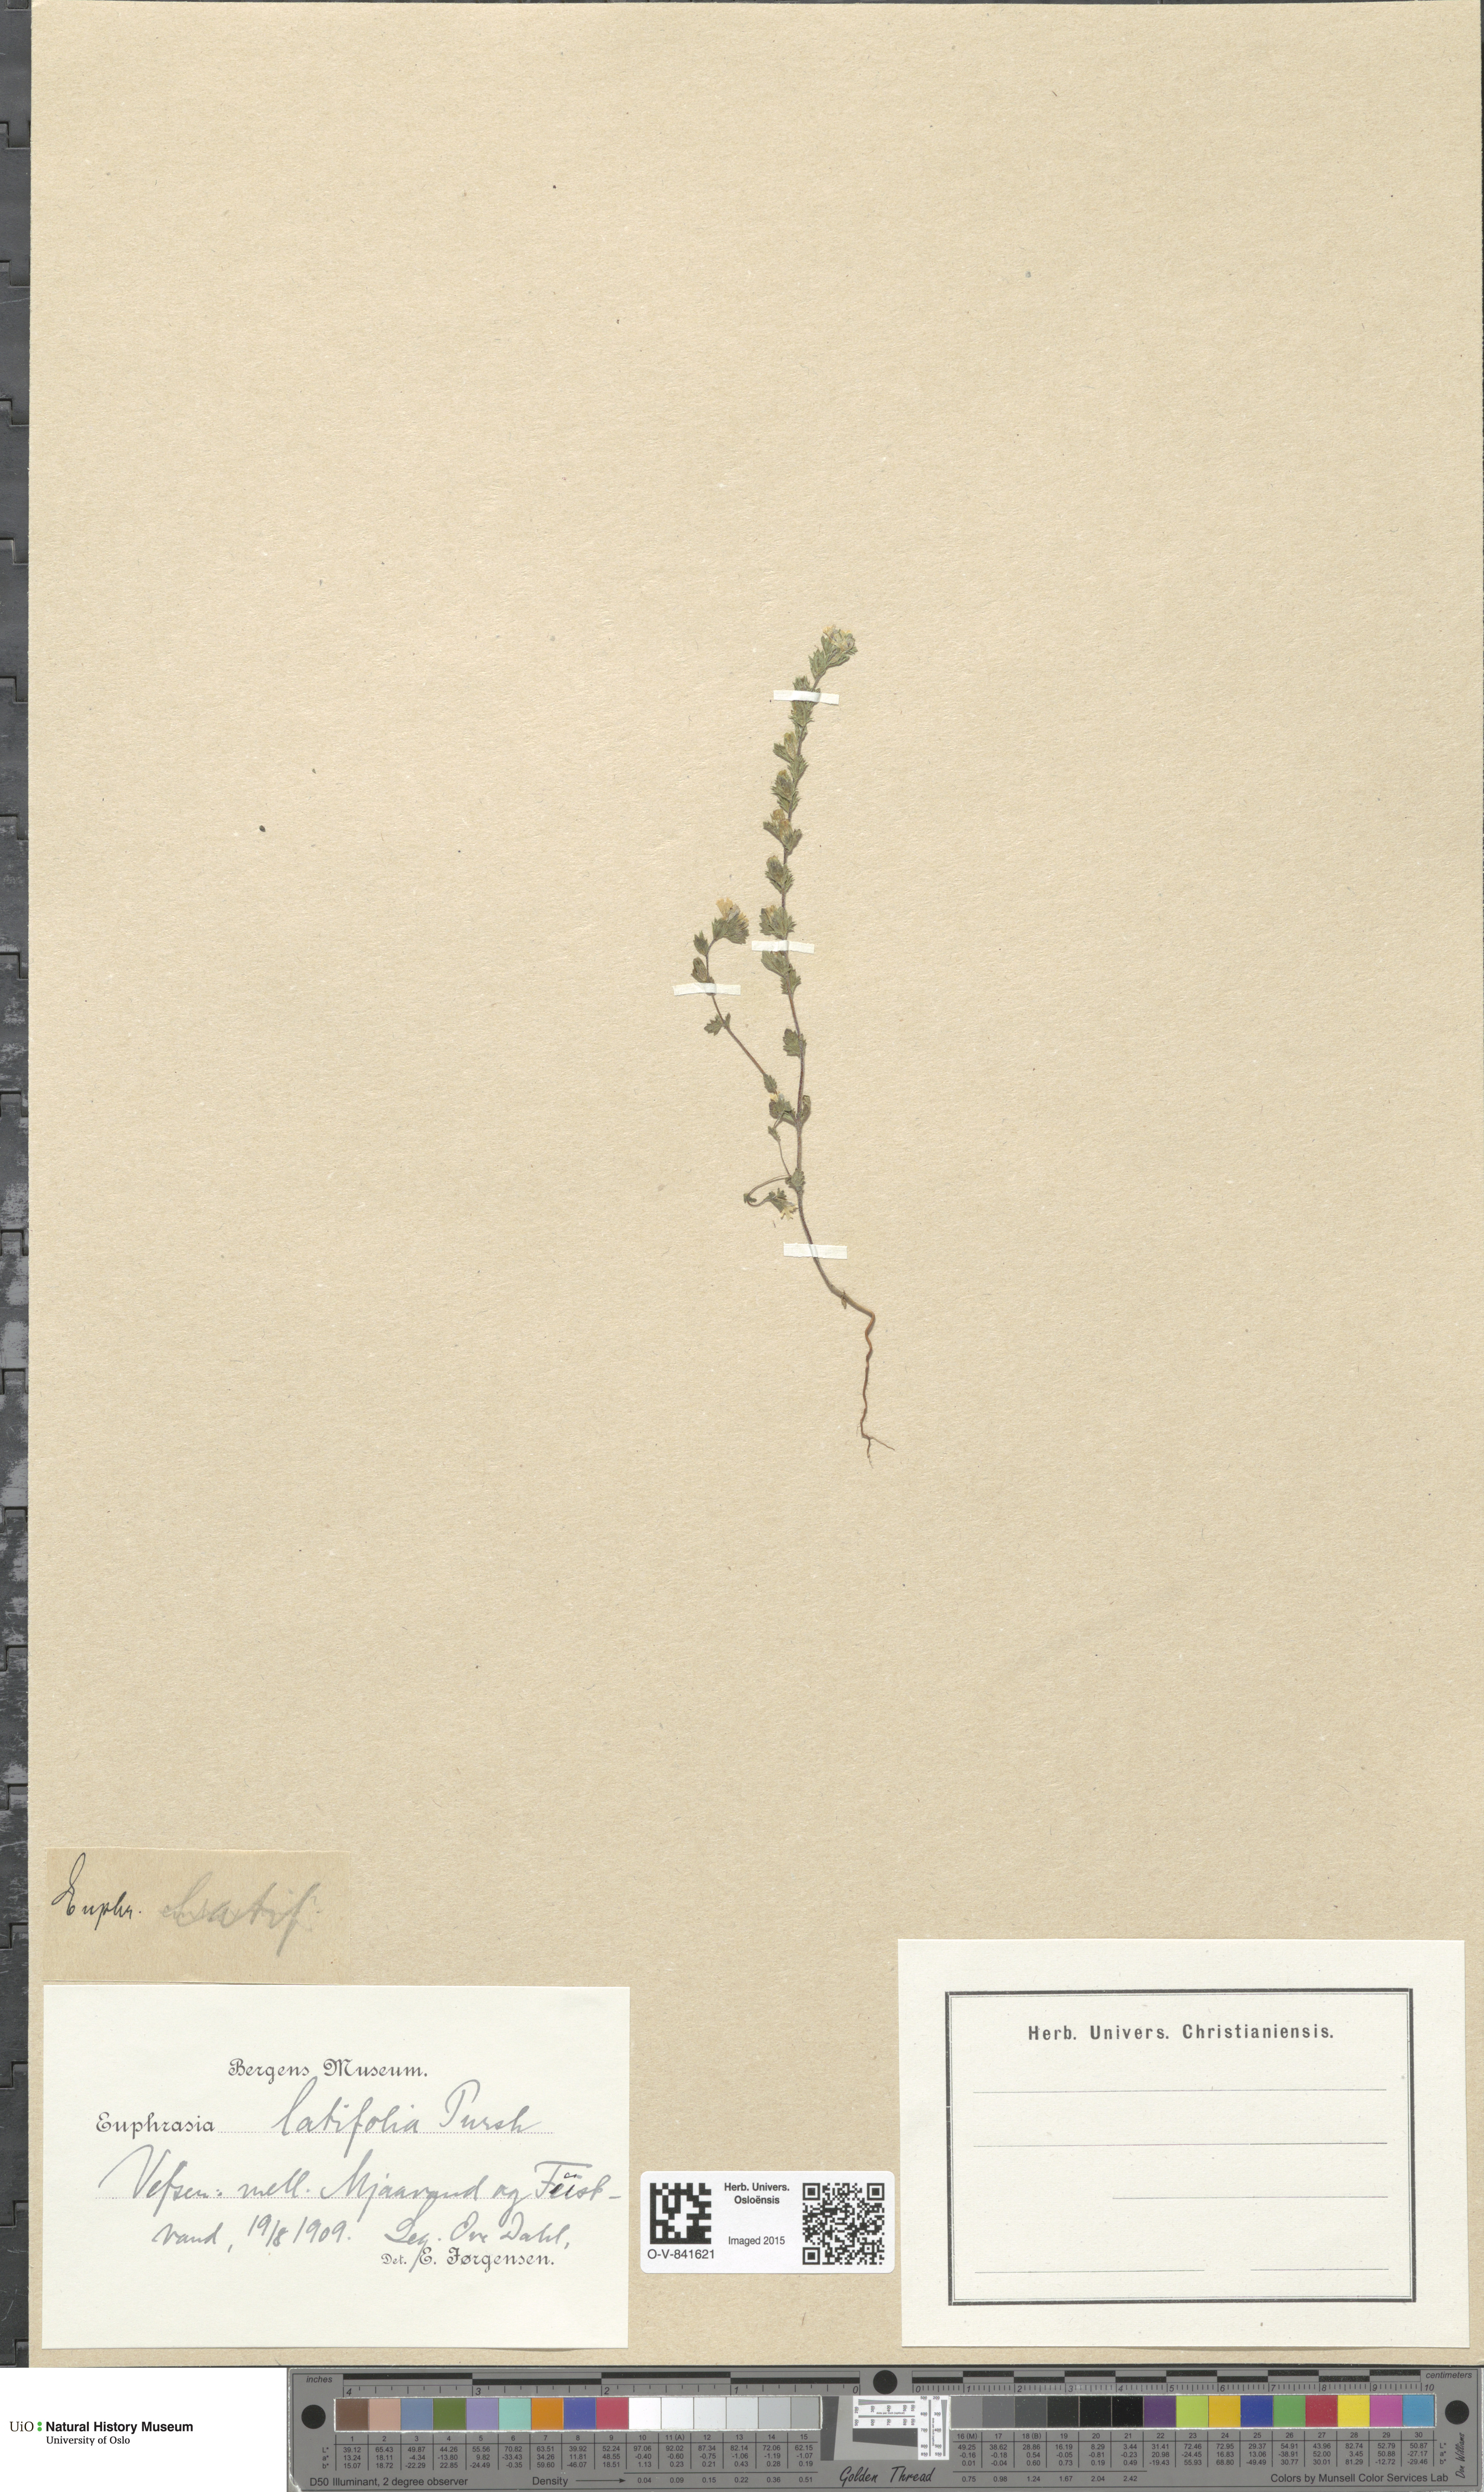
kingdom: Plantae
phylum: Tracheophyta
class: Magnoliopsida
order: Lamiales
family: Orobanchaceae
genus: Euphrasia
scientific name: Euphrasia wettsteinii
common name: Wettstein's eyebright
